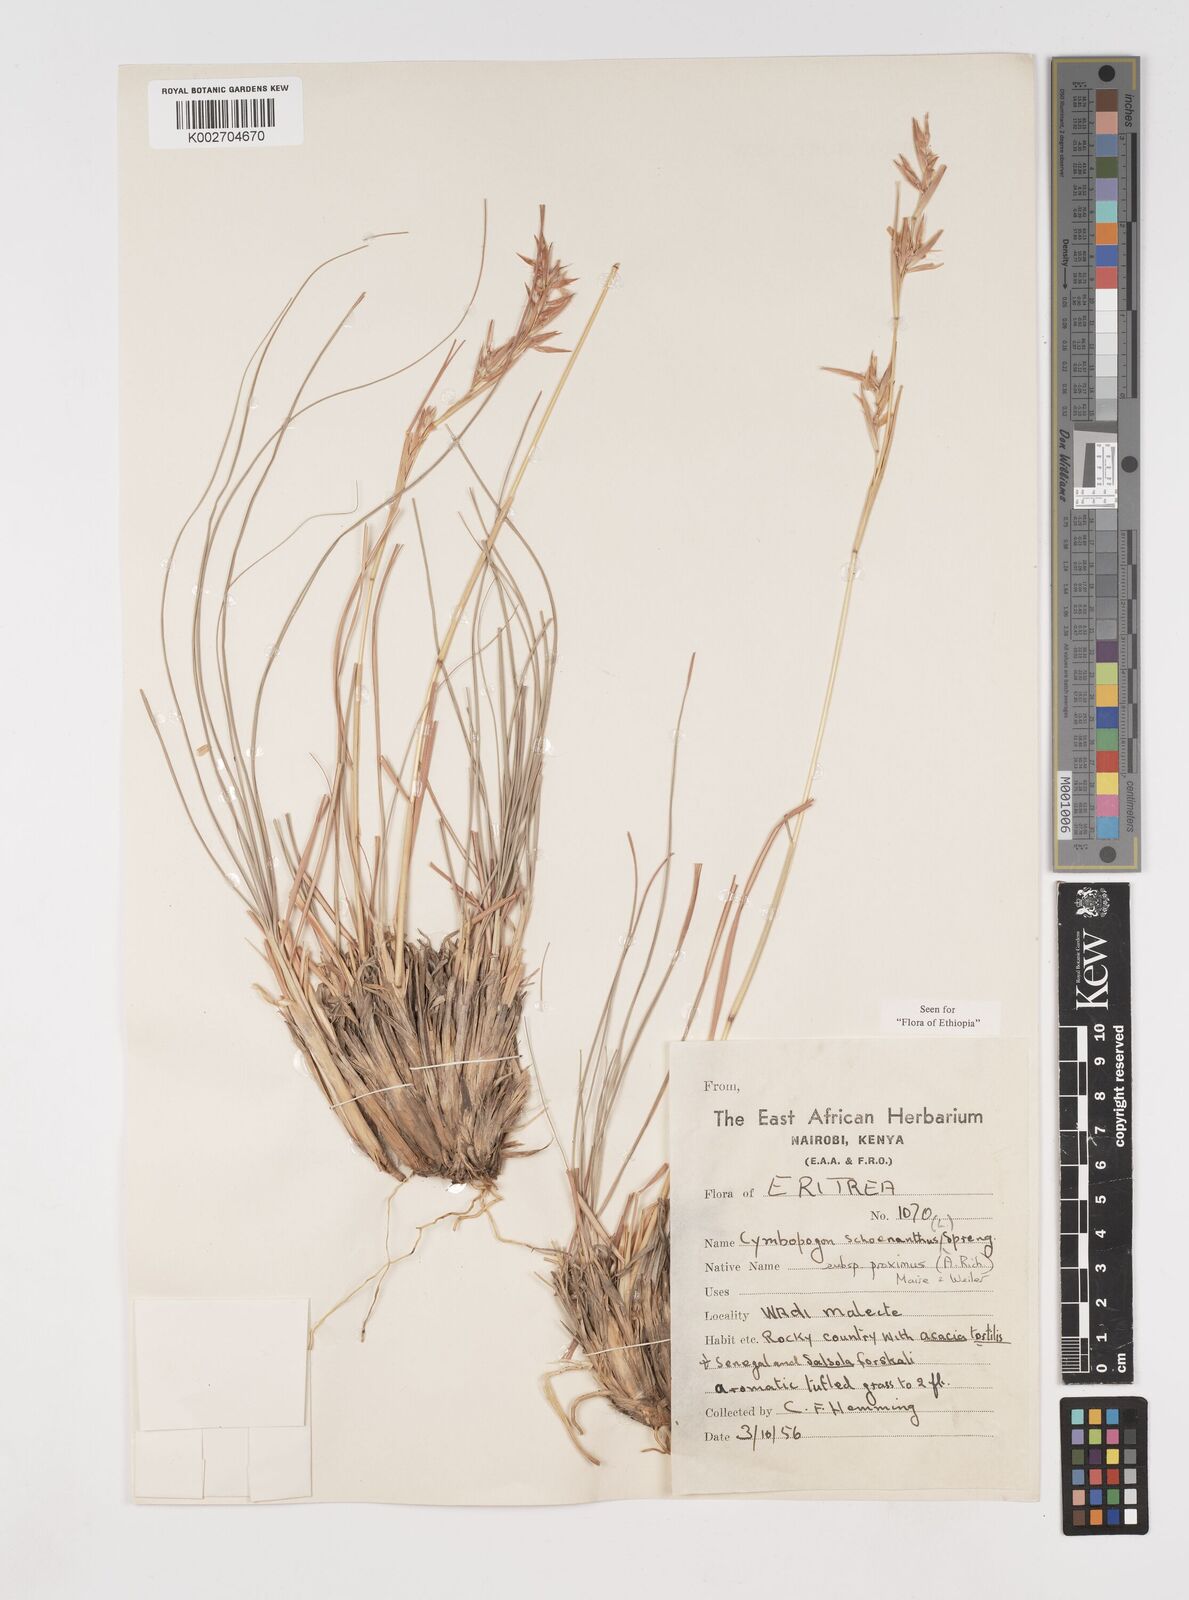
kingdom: Plantae
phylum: Tracheophyta
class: Liliopsida
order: Poales
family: Poaceae
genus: Cymbopogon
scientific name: Cymbopogon schoenanthus
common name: Geranium grass
